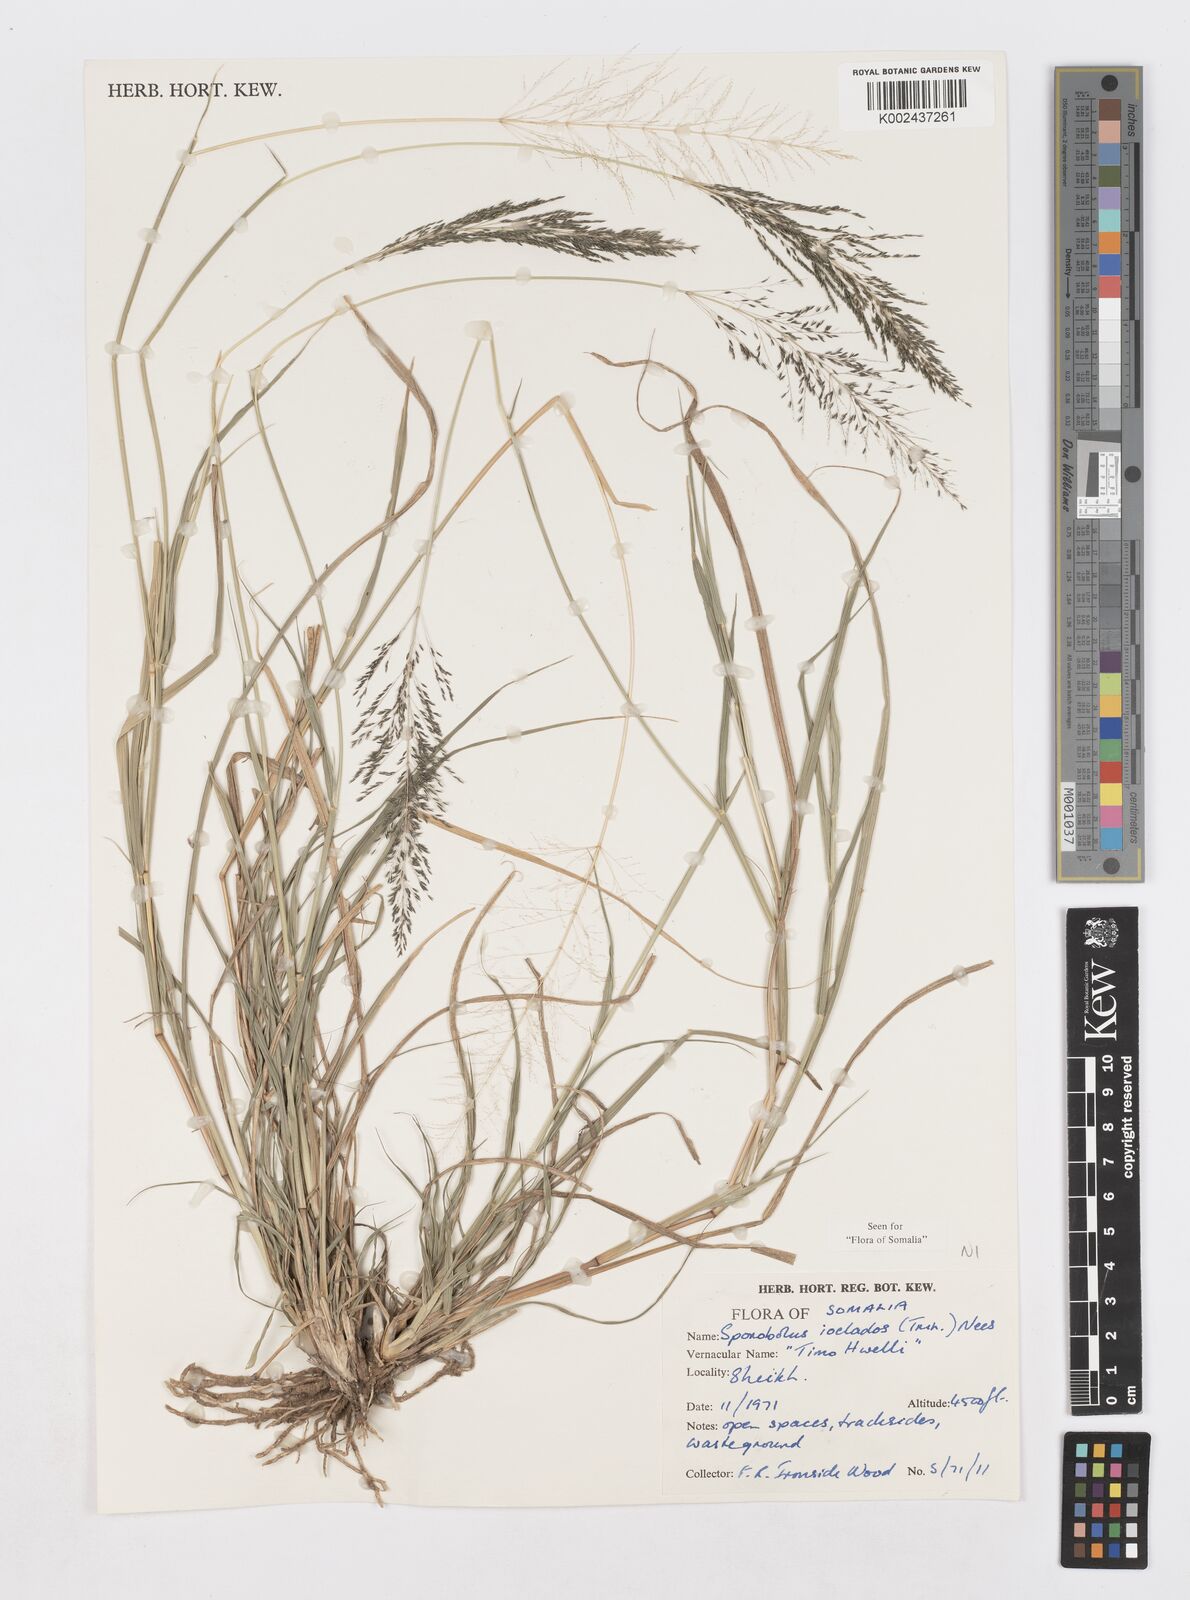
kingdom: Plantae
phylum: Tracheophyta
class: Liliopsida
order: Poales
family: Poaceae
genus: Sporobolus
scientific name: Sporobolus ioclados
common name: Pan dropseed
